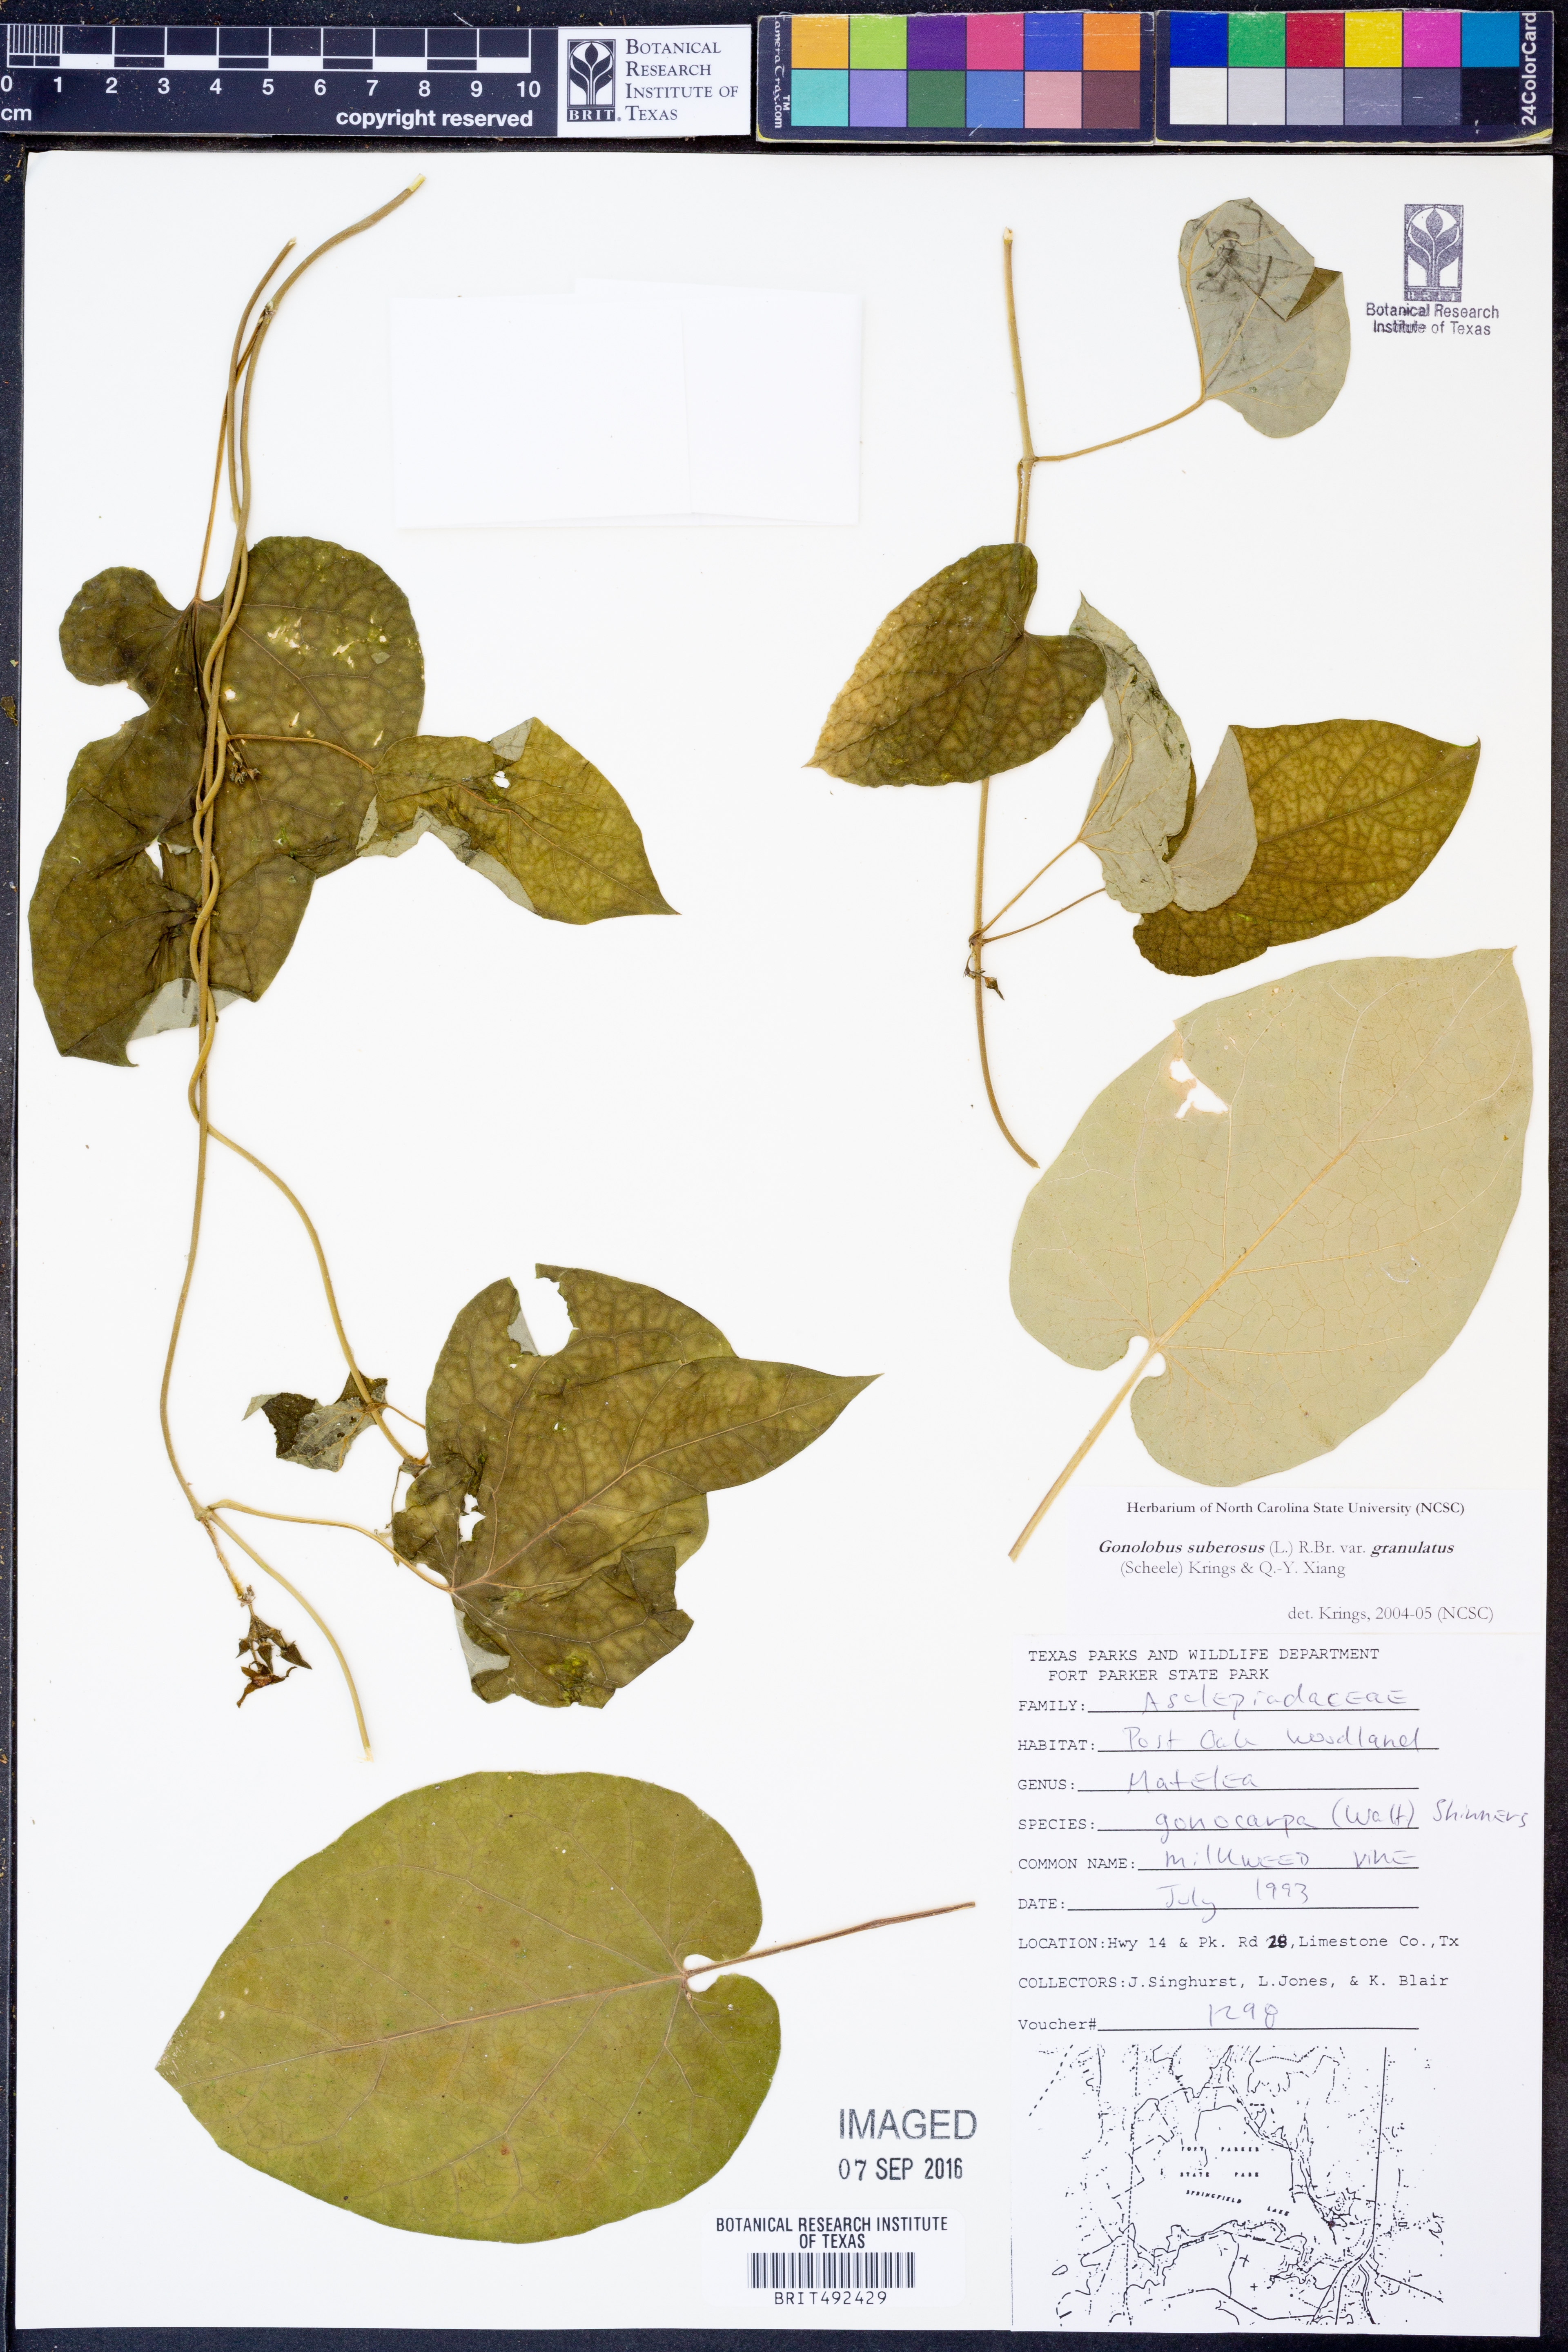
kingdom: Plantae
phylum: Tracheophyta
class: Magnoliopsida
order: Gentianales
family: Apocynaceae
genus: Gonolobus
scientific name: Gonolobus suberosus
